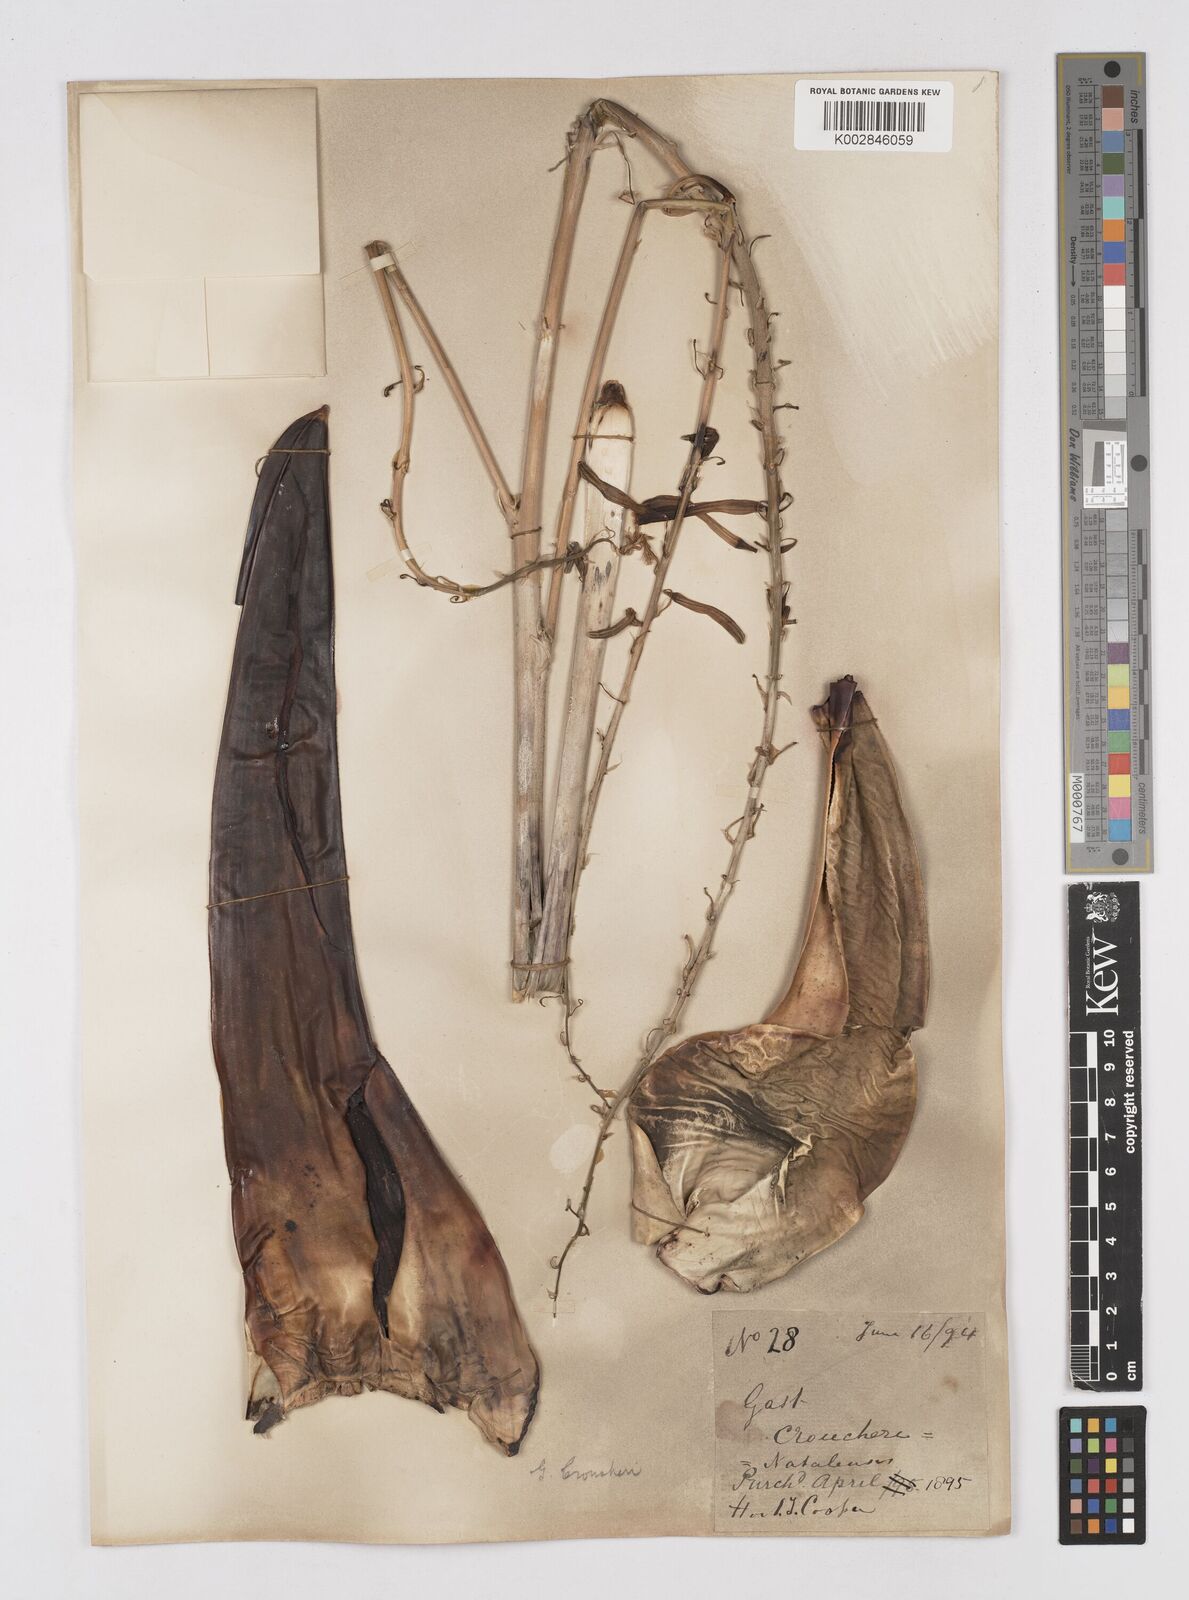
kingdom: Plantae
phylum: Tracheophyta
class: Liliopsida
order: Asparagales
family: Asphodelaceae
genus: Gasteria
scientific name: Gasteria croucheri
